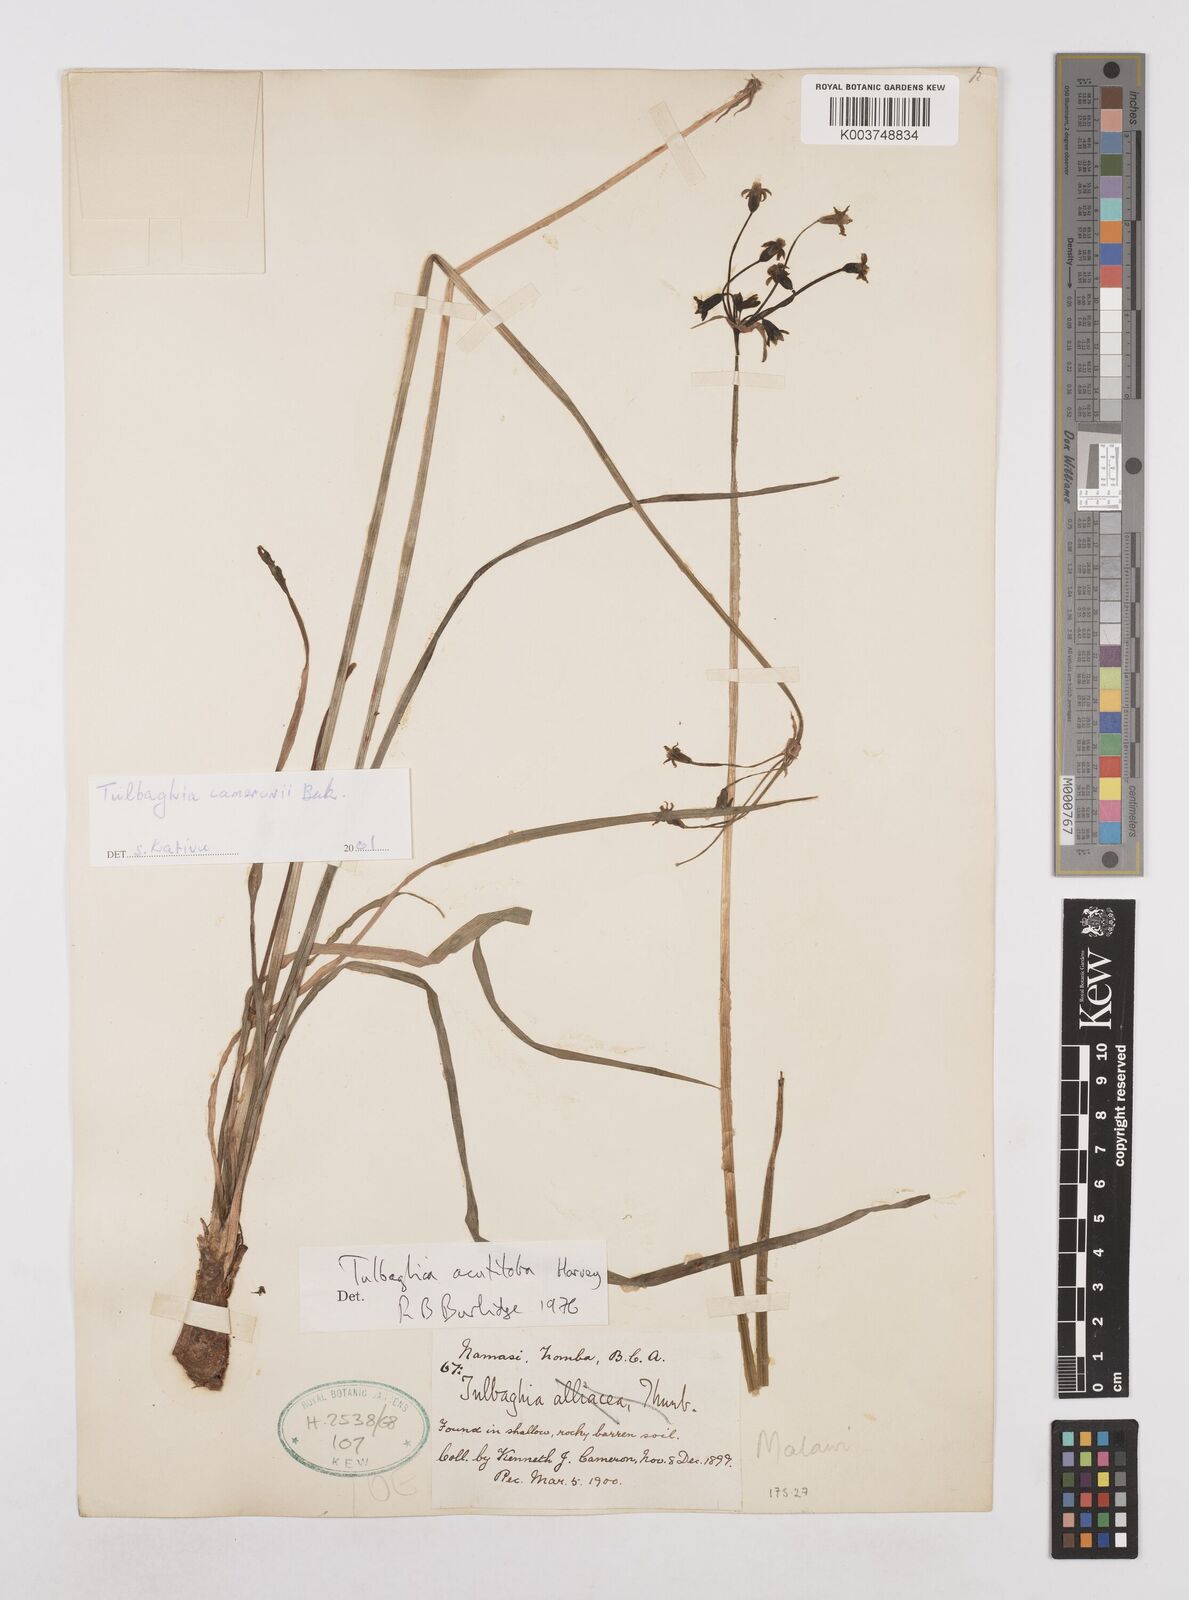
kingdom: Plantae
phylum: Tracheophyta
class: Liliopsida
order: Asparagales
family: Amaryllidaceae
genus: Tulbaghia
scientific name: Tulbaghia cameronii
